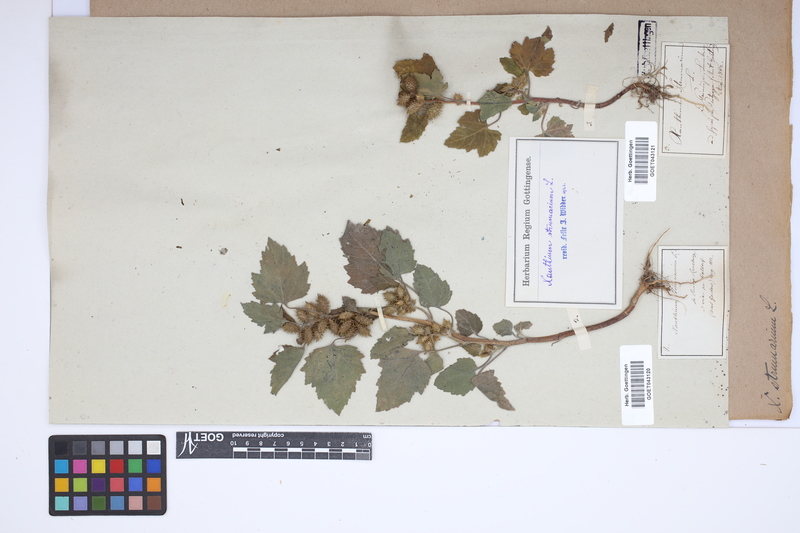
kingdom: Plantae
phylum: Tracheophyta
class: Magnoliopsida
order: Asterales
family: Asteraceae
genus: Xanthium
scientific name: Xanthium strumarium
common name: Rough cocklebur
